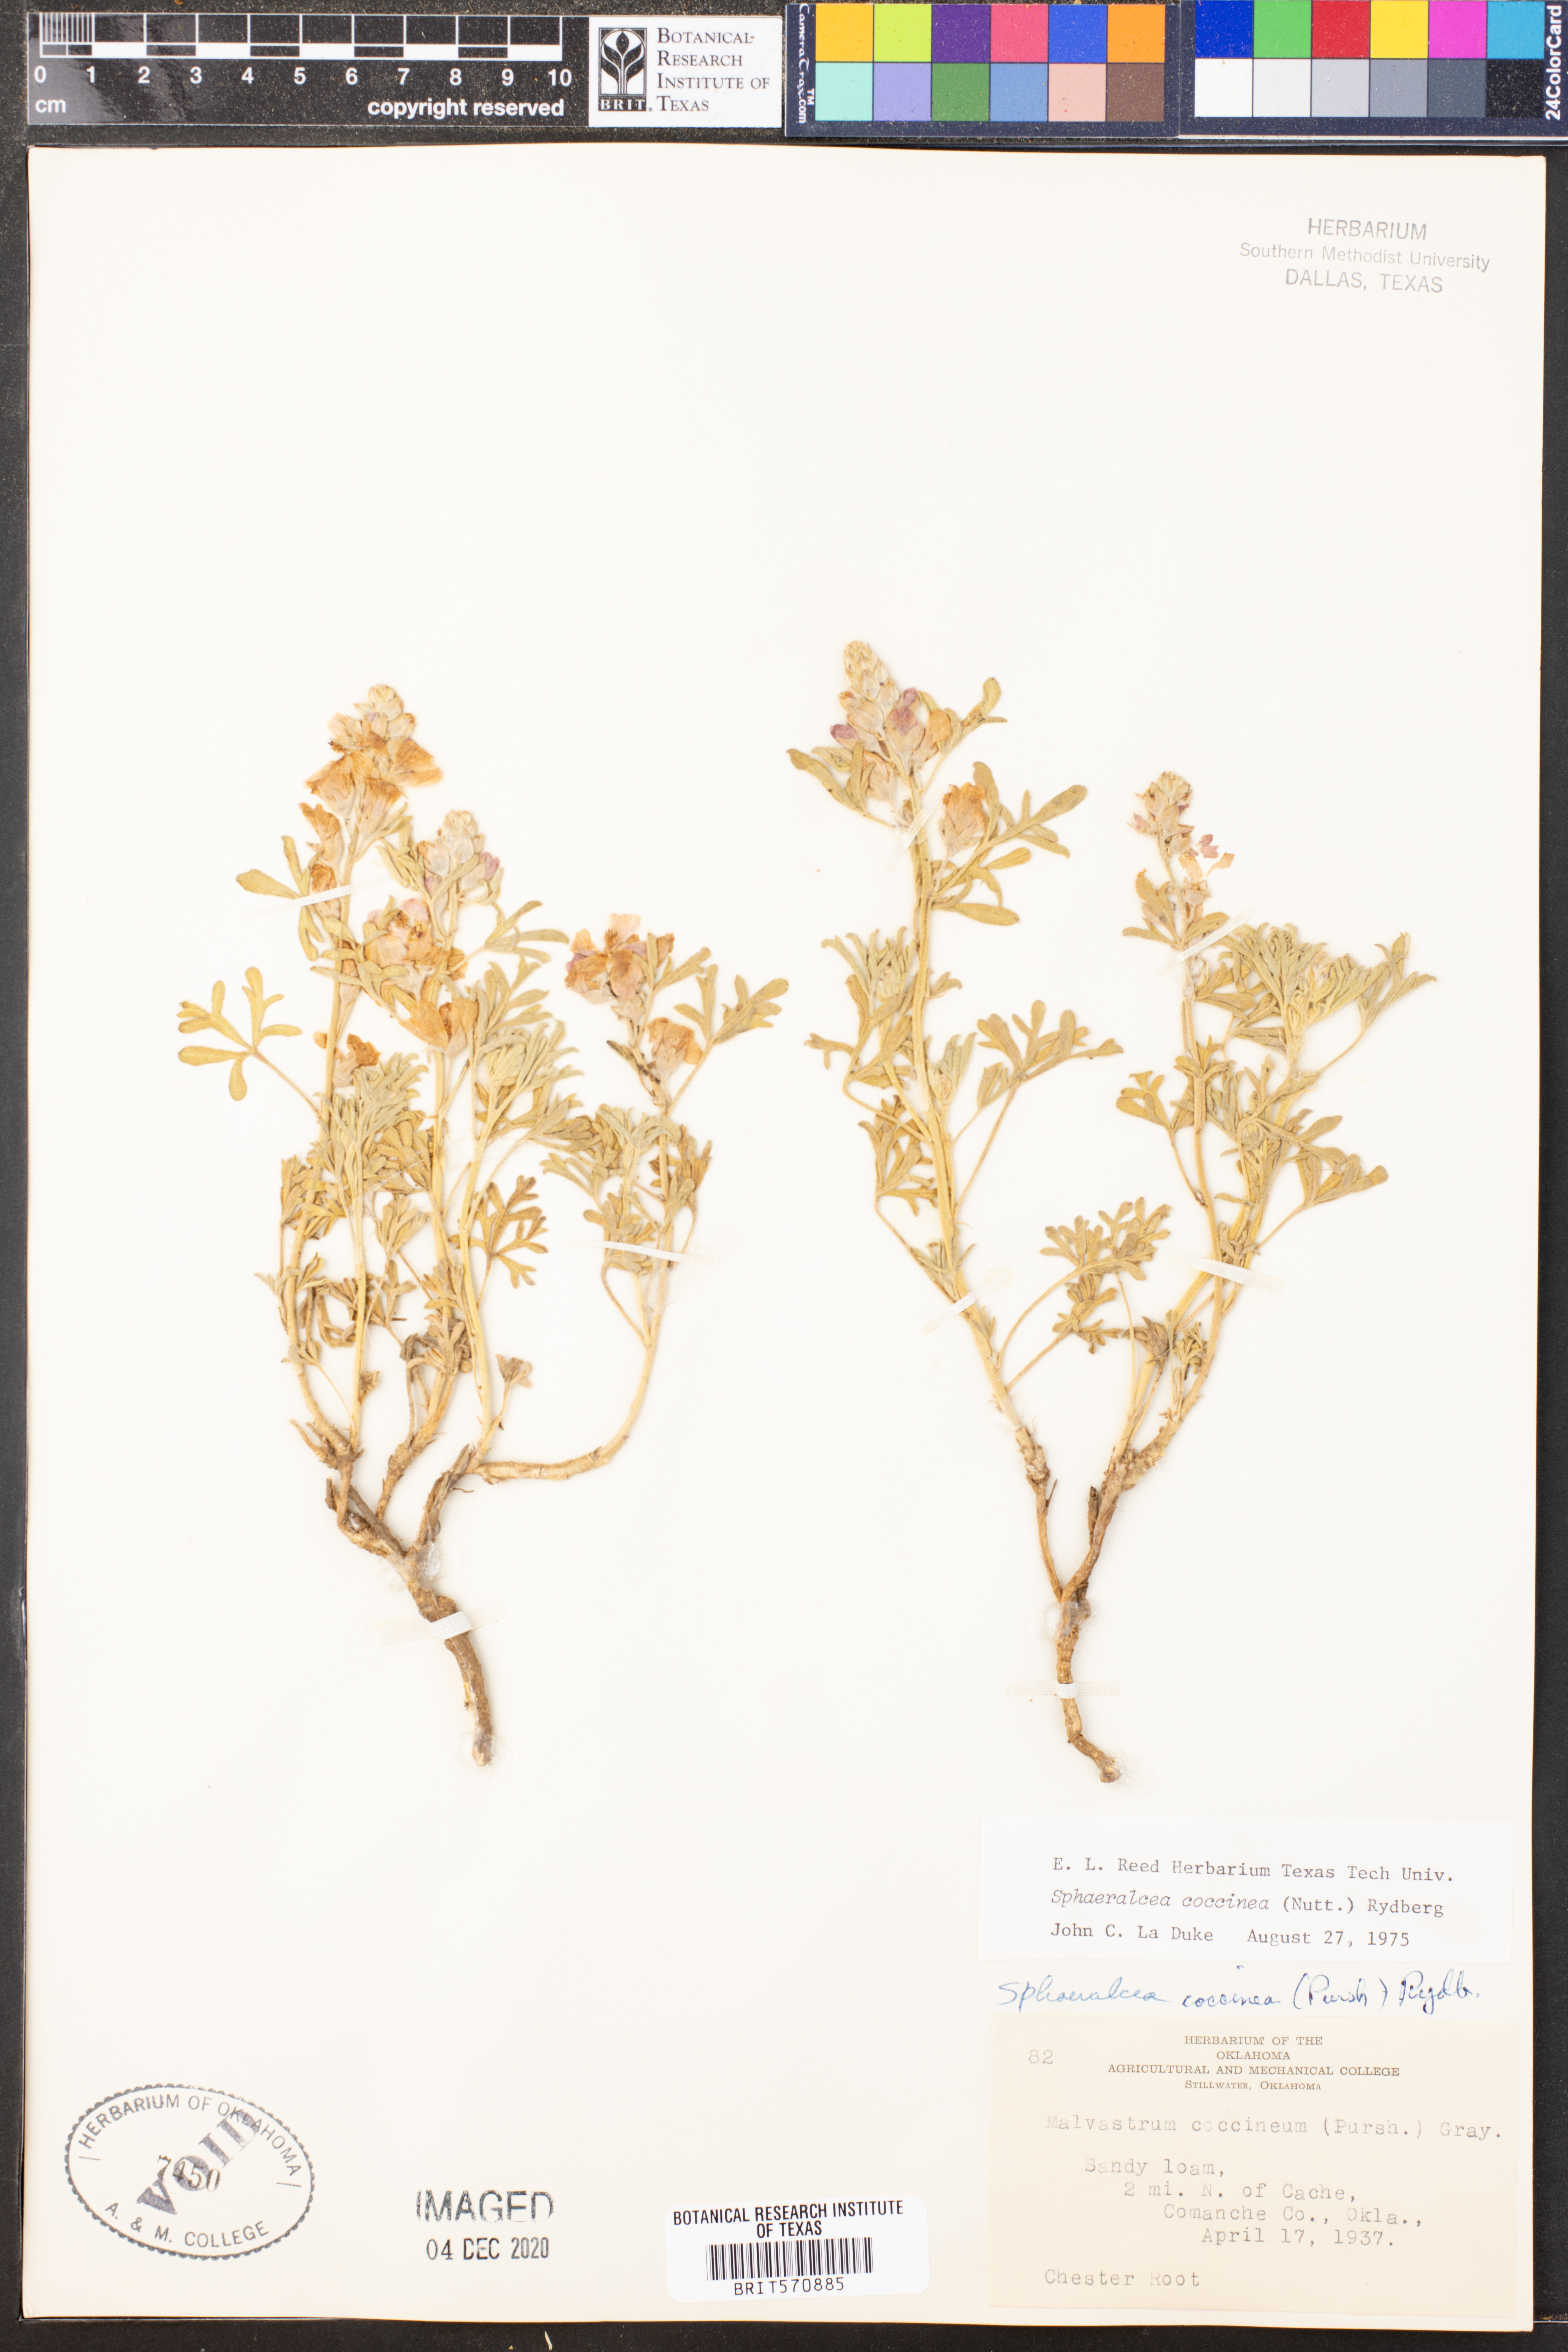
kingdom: Plantae
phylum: Tracheophyta
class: Magnoliopsida
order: Malvales
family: Malvaceae
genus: Sphaeralcea
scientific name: Sphaeralcea coccinea
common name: Moss-rose
